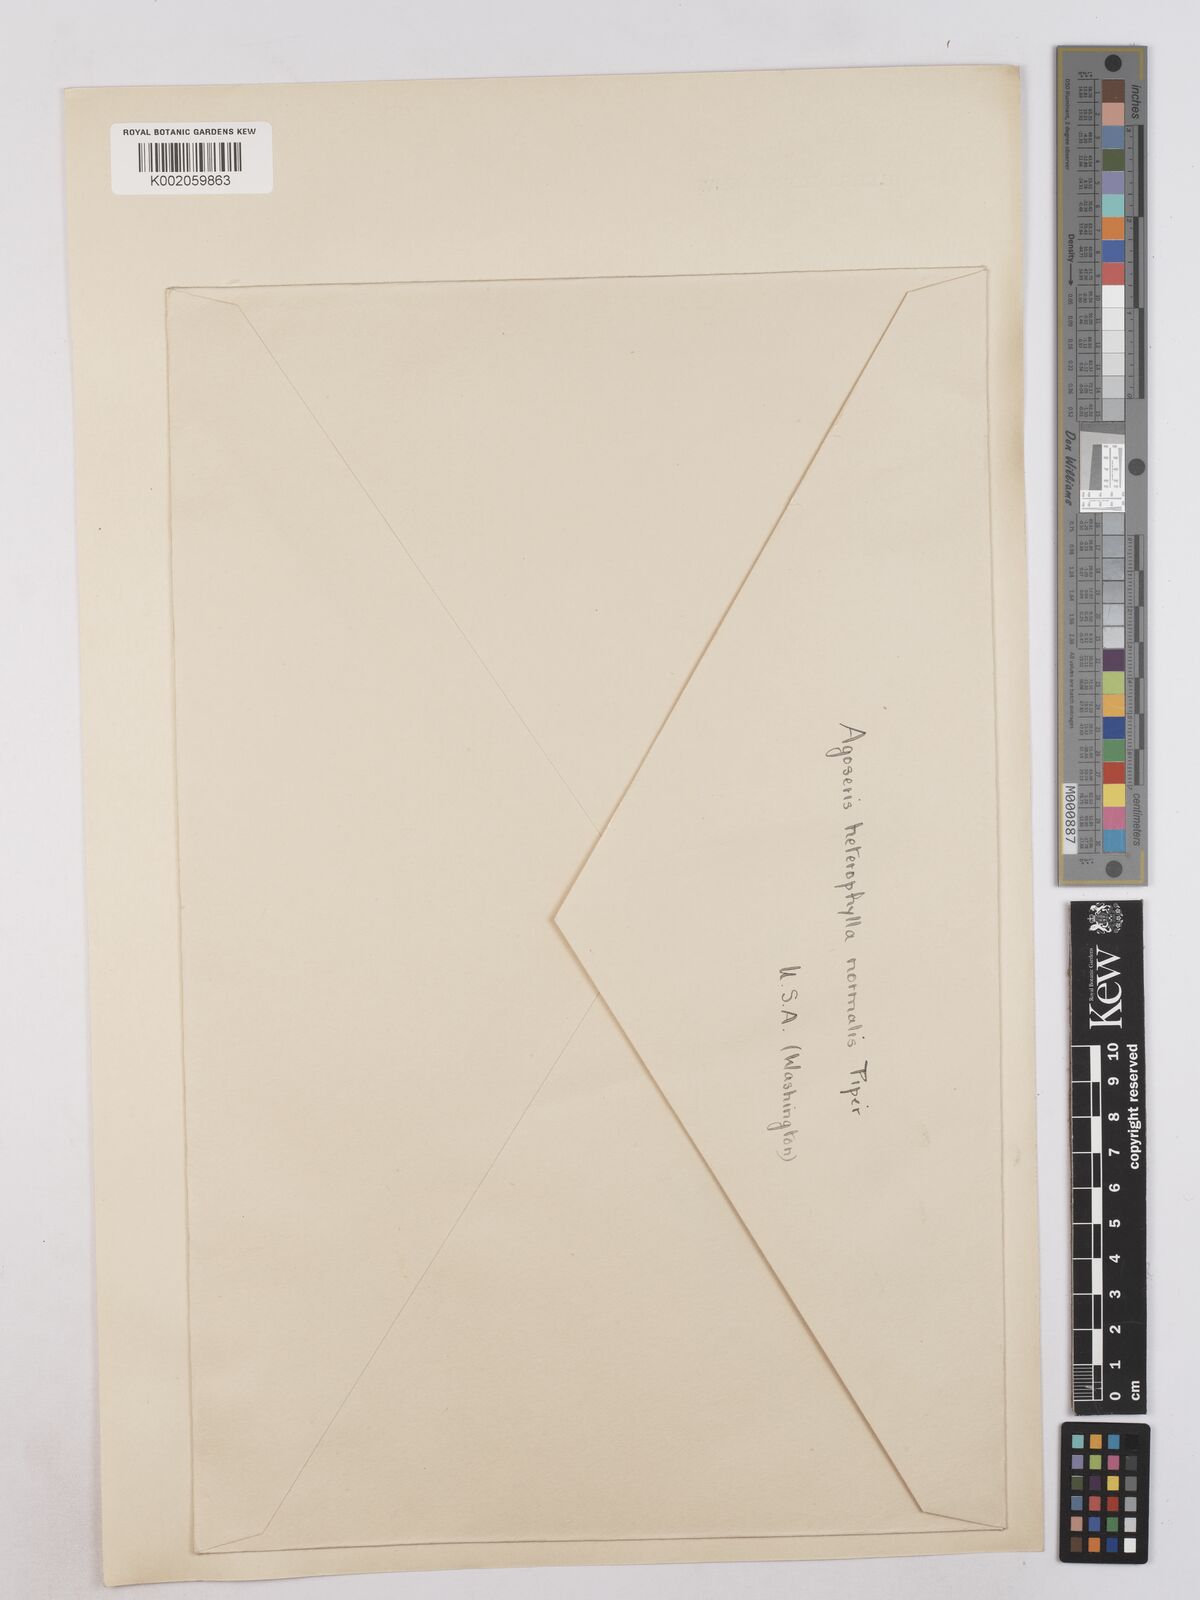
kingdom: Plantae
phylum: Tracheophyta
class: Magnoliopsida
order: Asterales
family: Asteraceae
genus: Agoseris
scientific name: Agoseris heterophylla
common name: Annual agoseris
